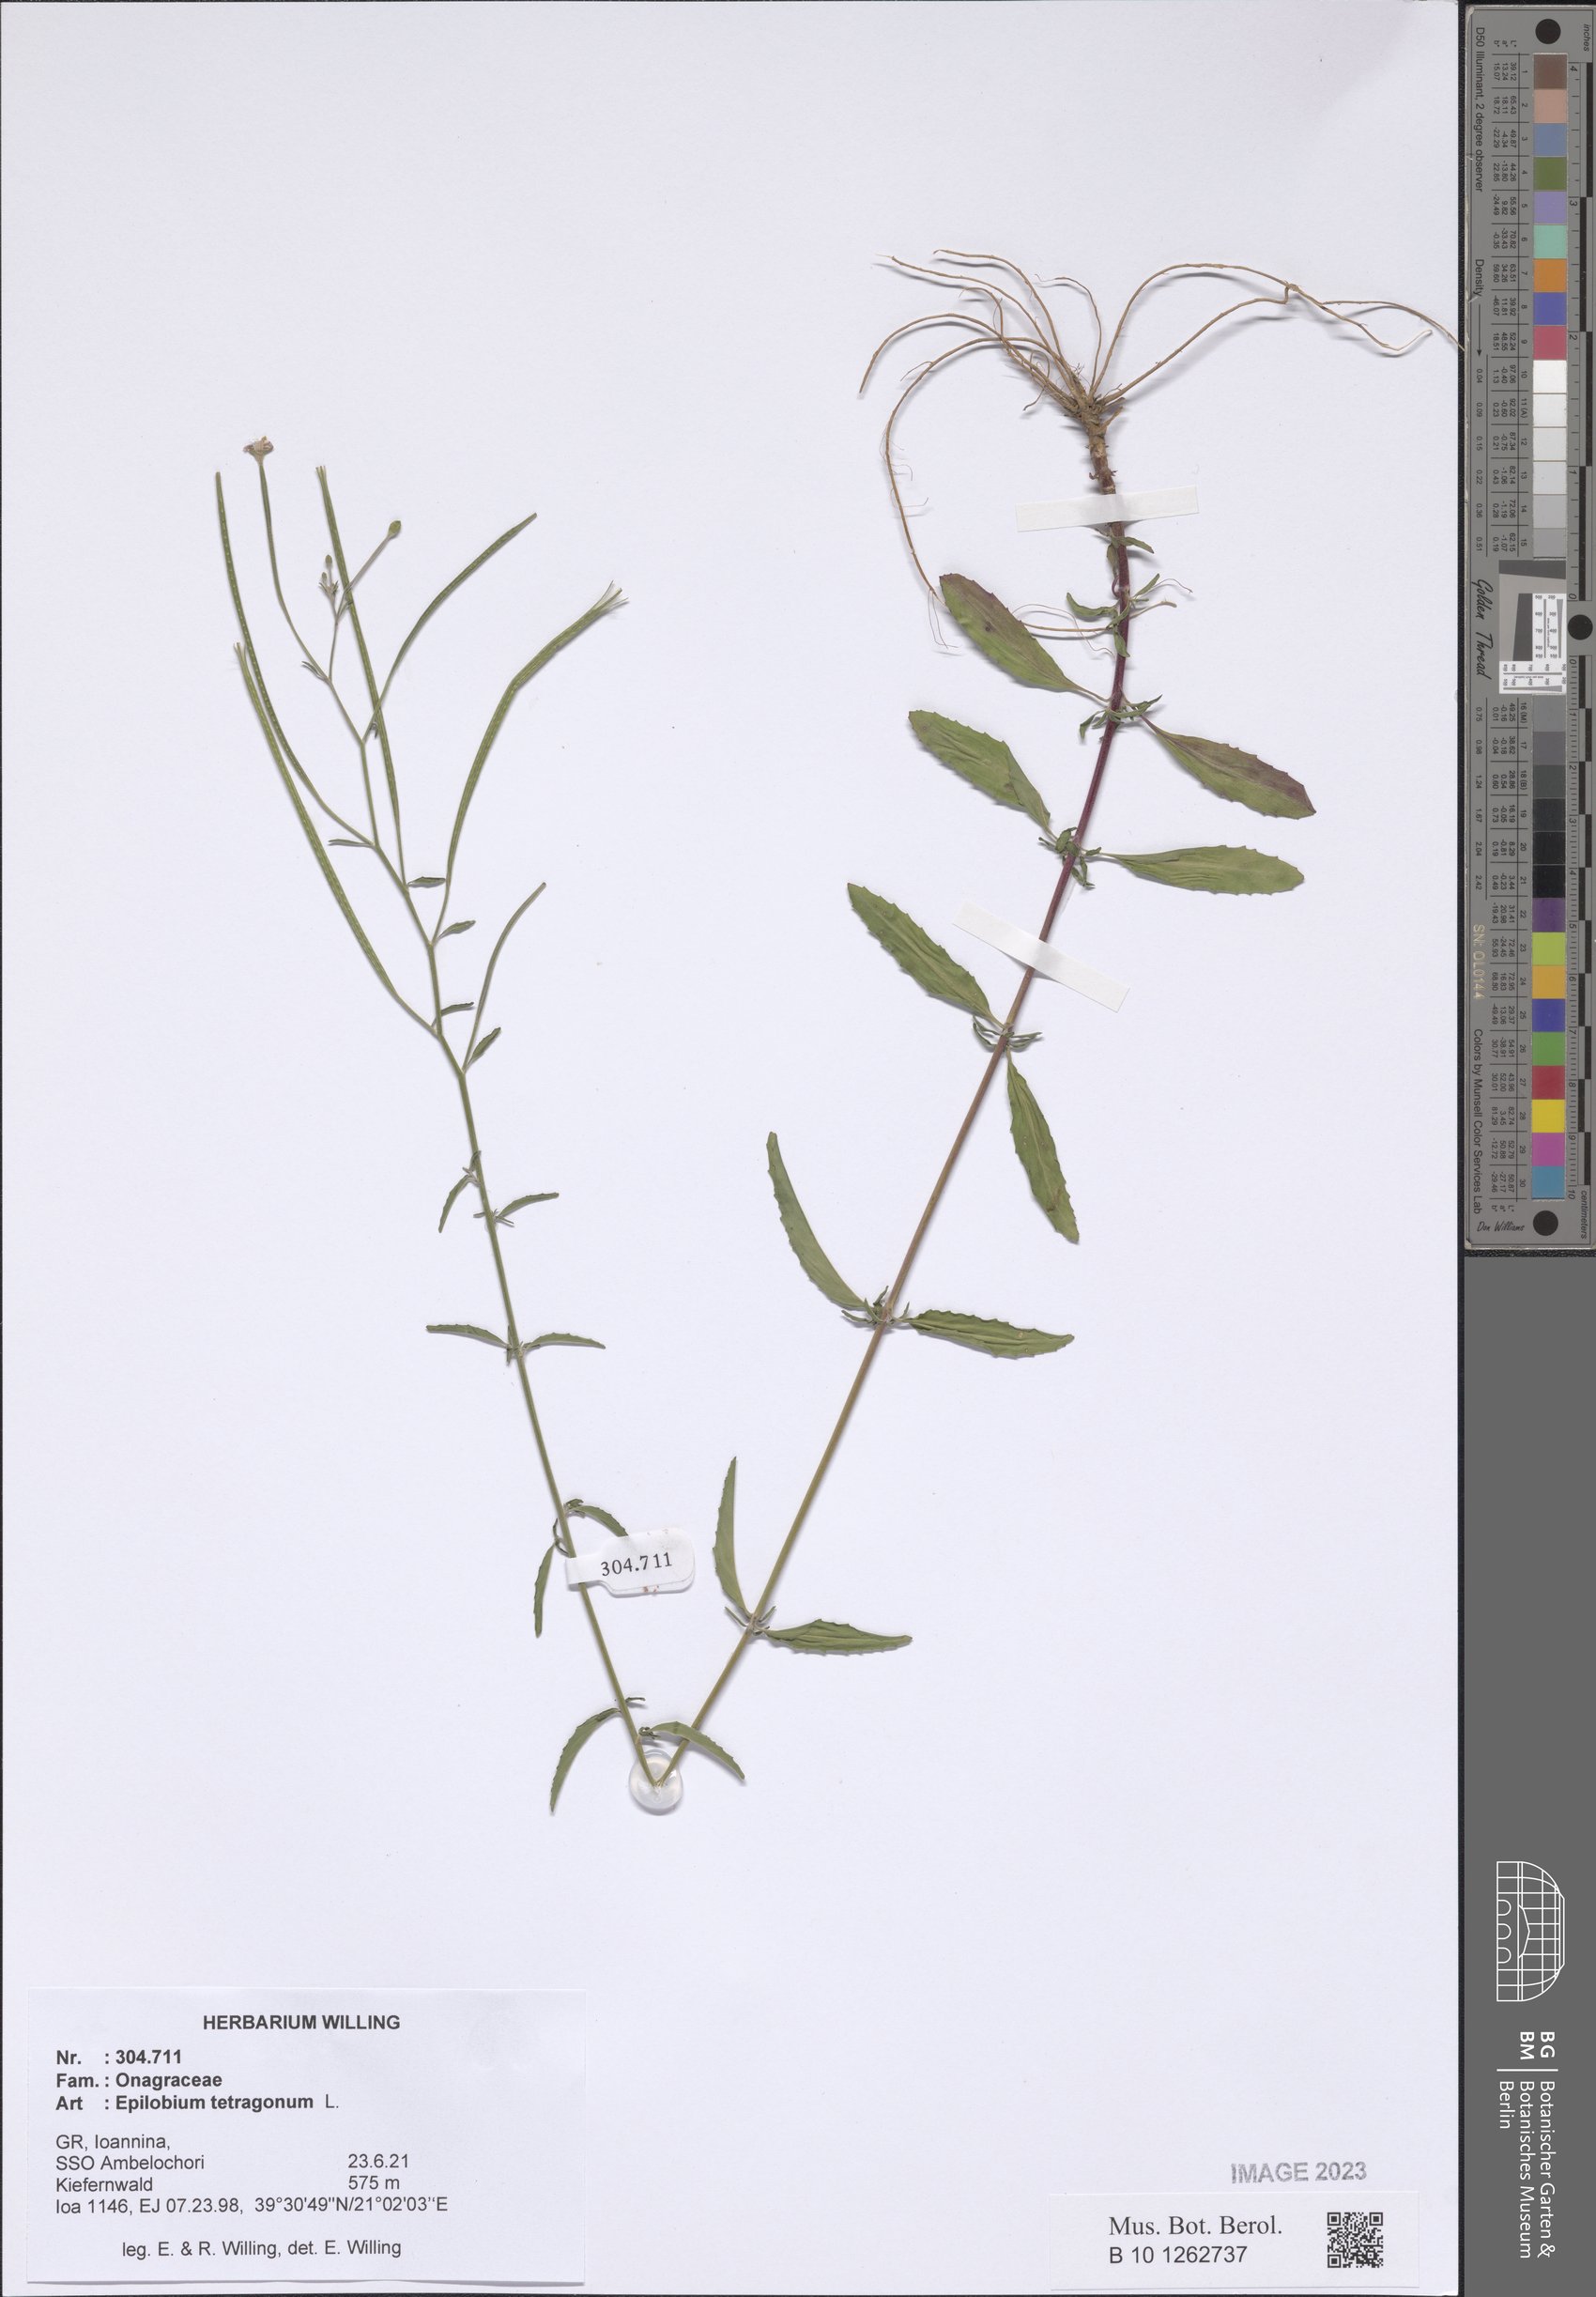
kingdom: Plantae
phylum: Tracheophyta
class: Magnoliopsida
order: Myrtales
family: Onagraceae
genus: Epilobium
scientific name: Epilobium tetragonum
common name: Square-stemmed willowherb
